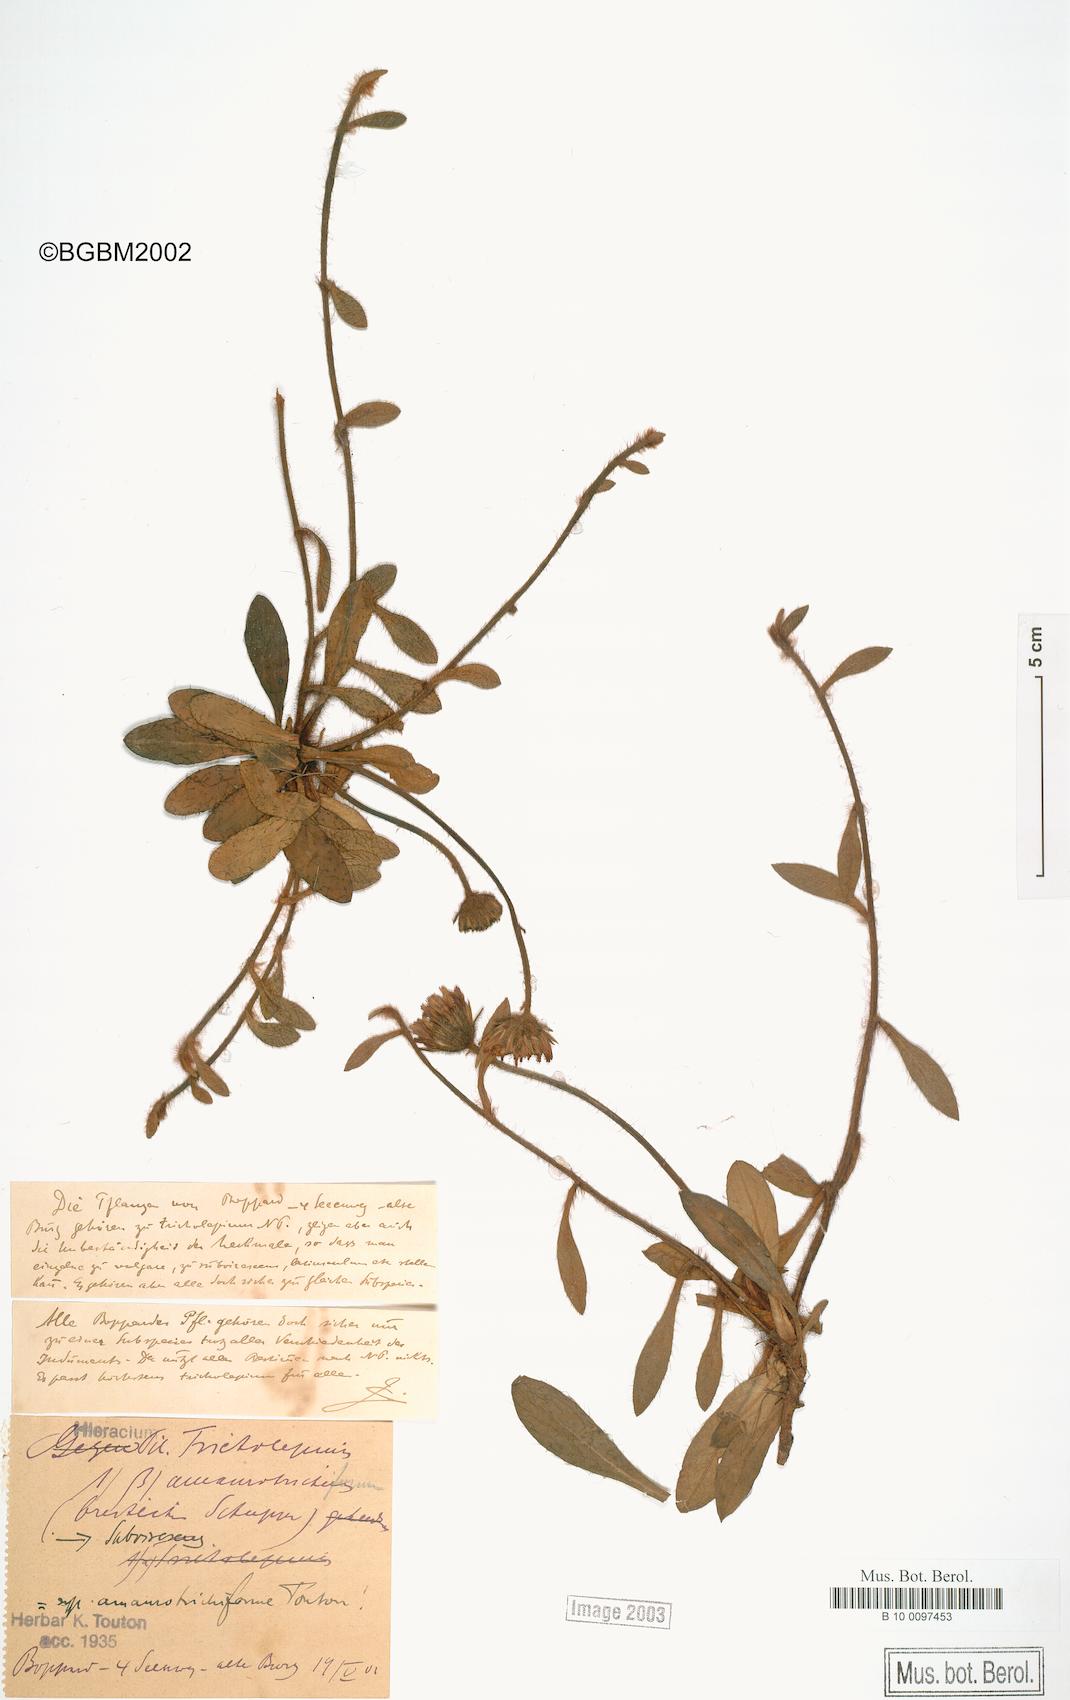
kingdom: Plantae
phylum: Tracheophyta
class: Magnoliopsida
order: Asterales
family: Asteraceae
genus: Pilosella
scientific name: Pilosella officinarum
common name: Mouse-ear hawkweed
